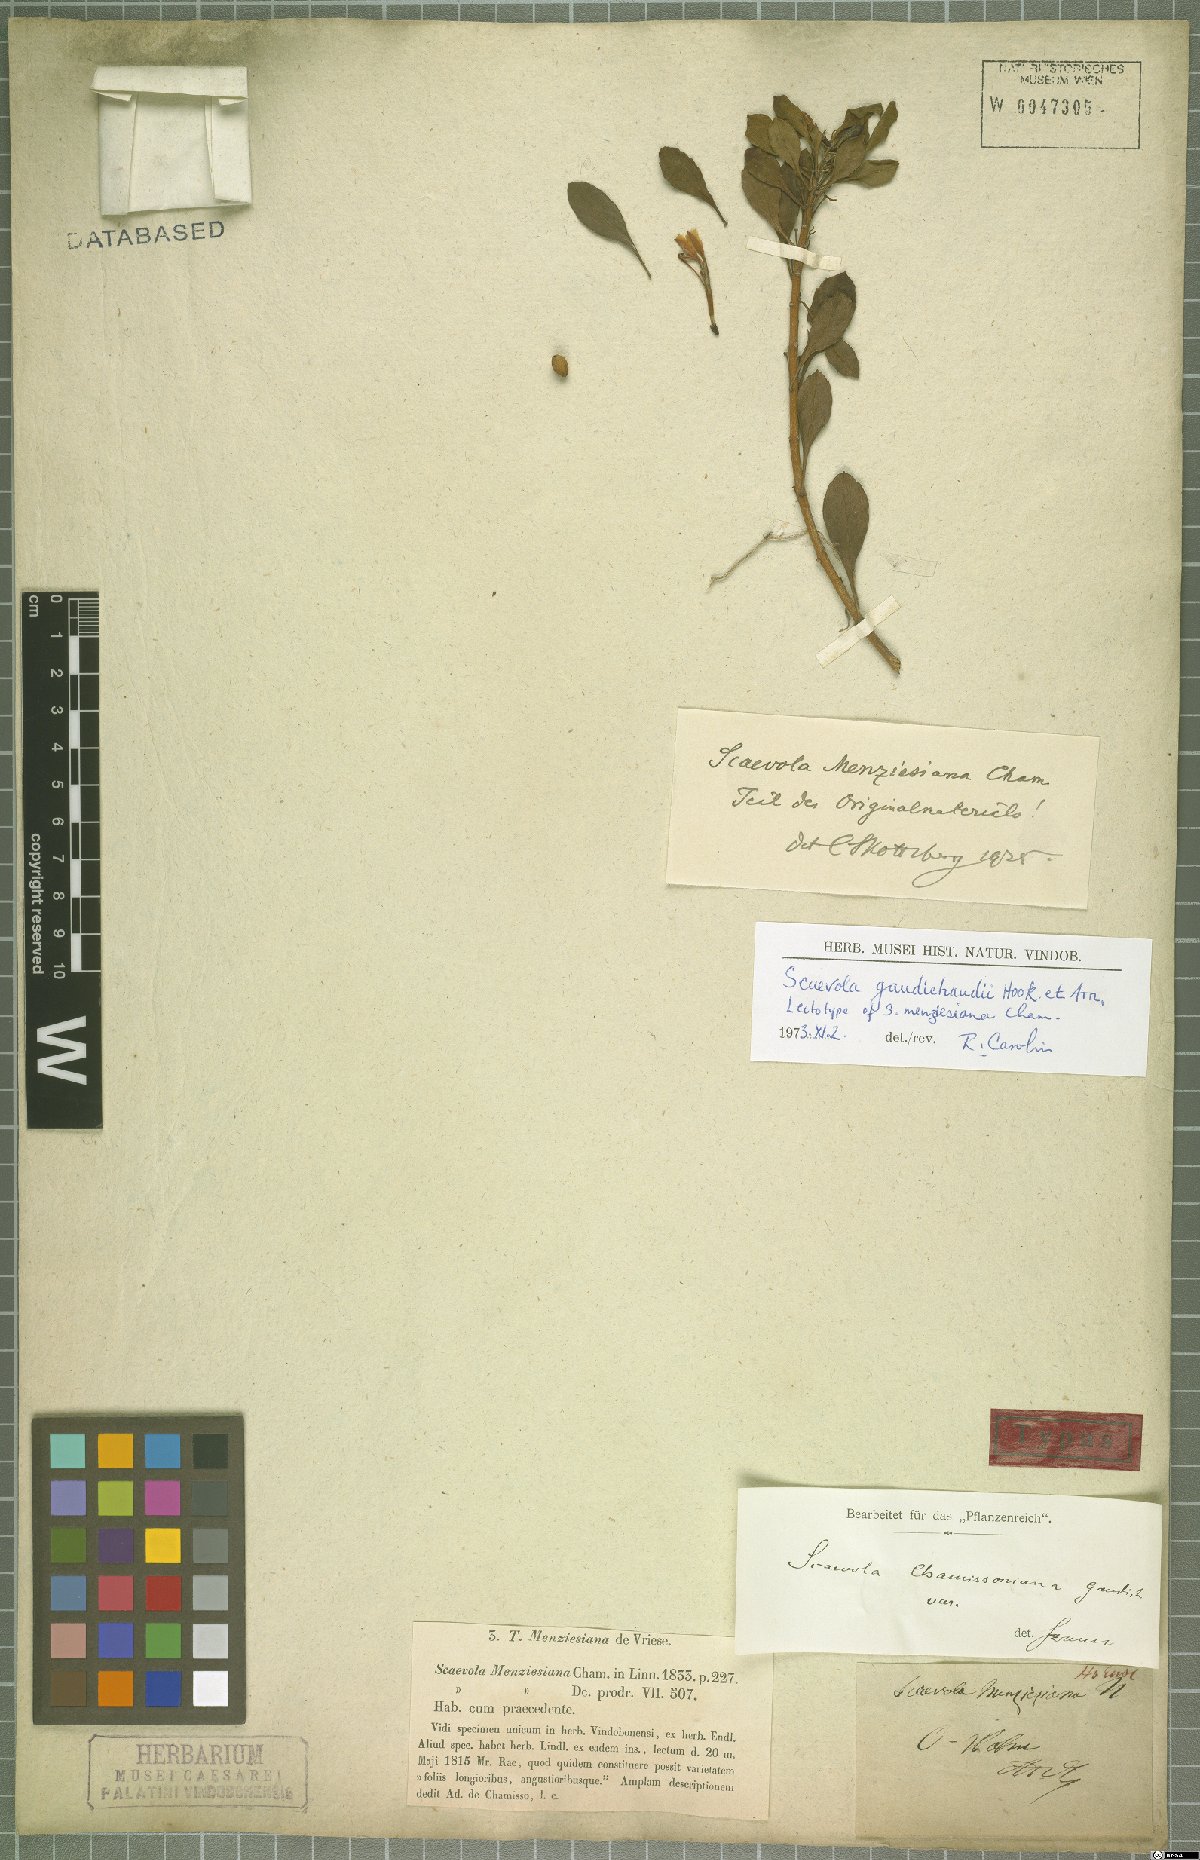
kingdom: Plantae
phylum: Tracheophyta
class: Magnoliopsida
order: Asterales
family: Goodeniaceae
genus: Scaevola
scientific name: Scaevola gaudichaudii
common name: Mountain naupaka
